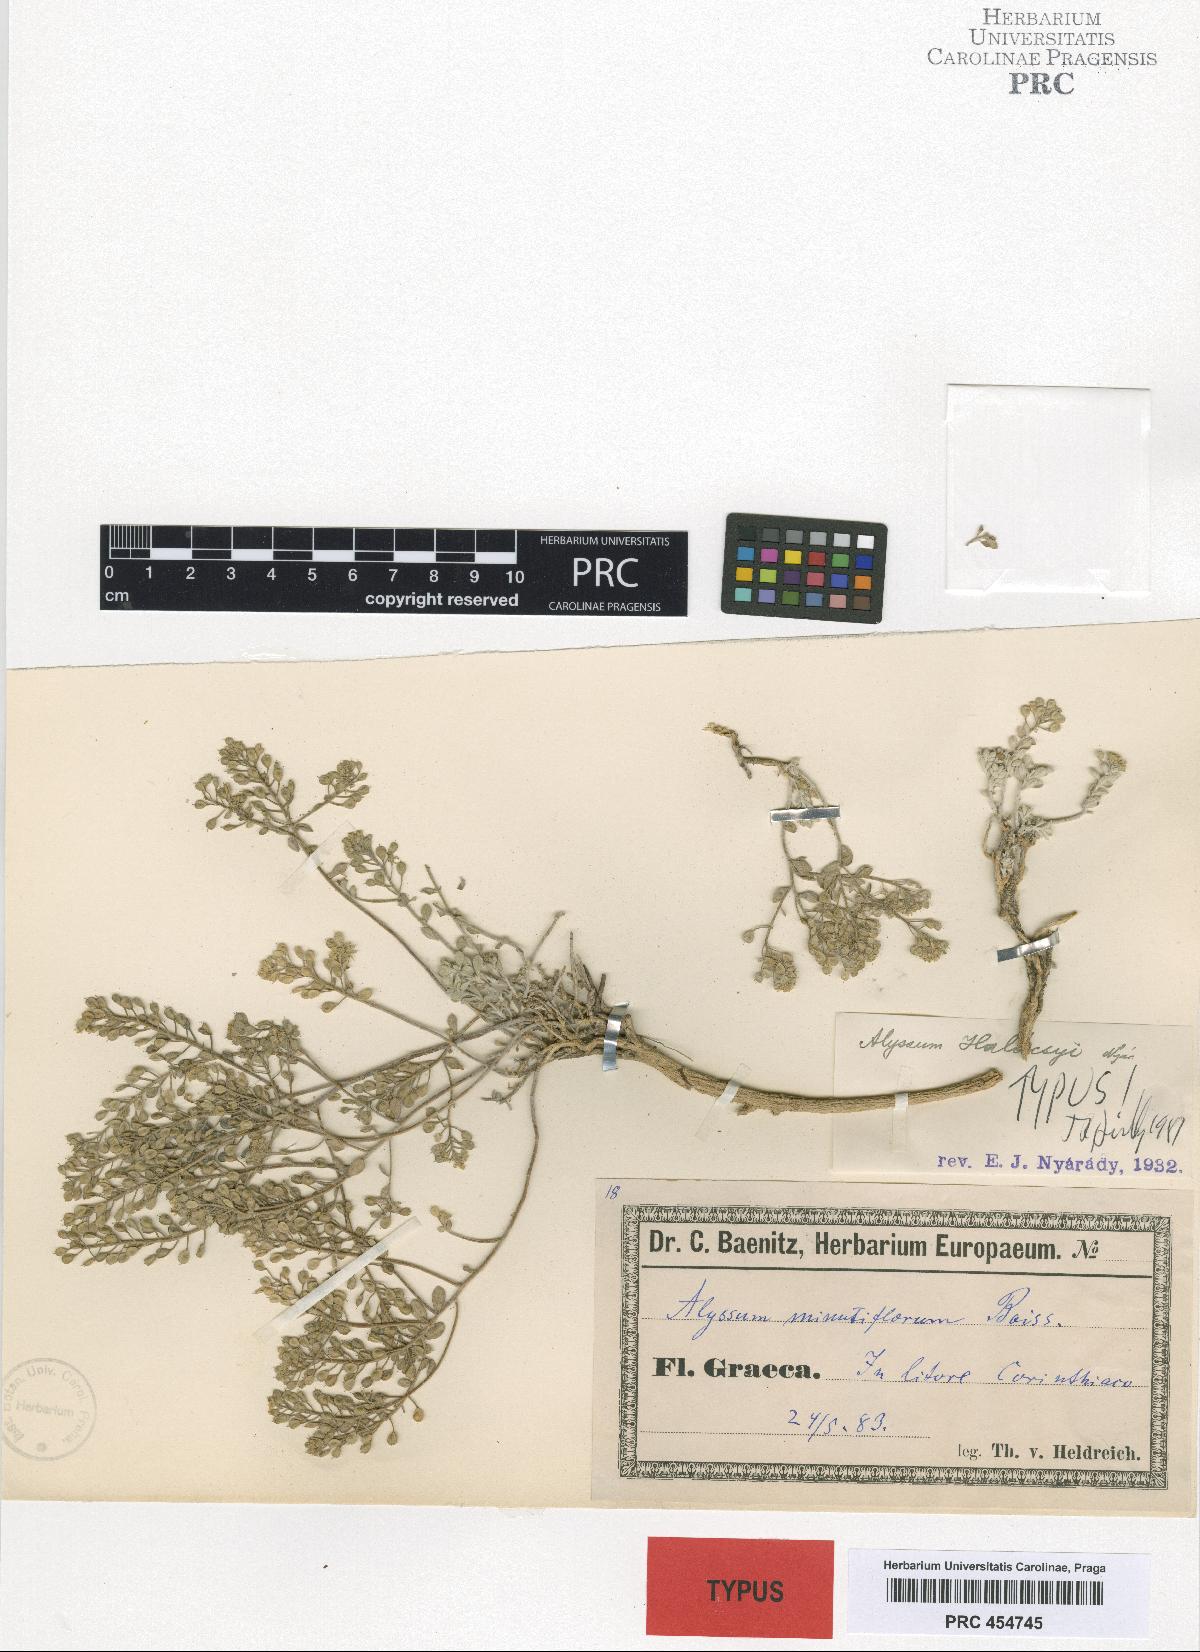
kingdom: Plantae
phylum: Tracheophyta
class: Magnoliopsida
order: Brassicales
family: Brassicaceae
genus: Odontarrhena
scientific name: Odontarrhena sibirica
